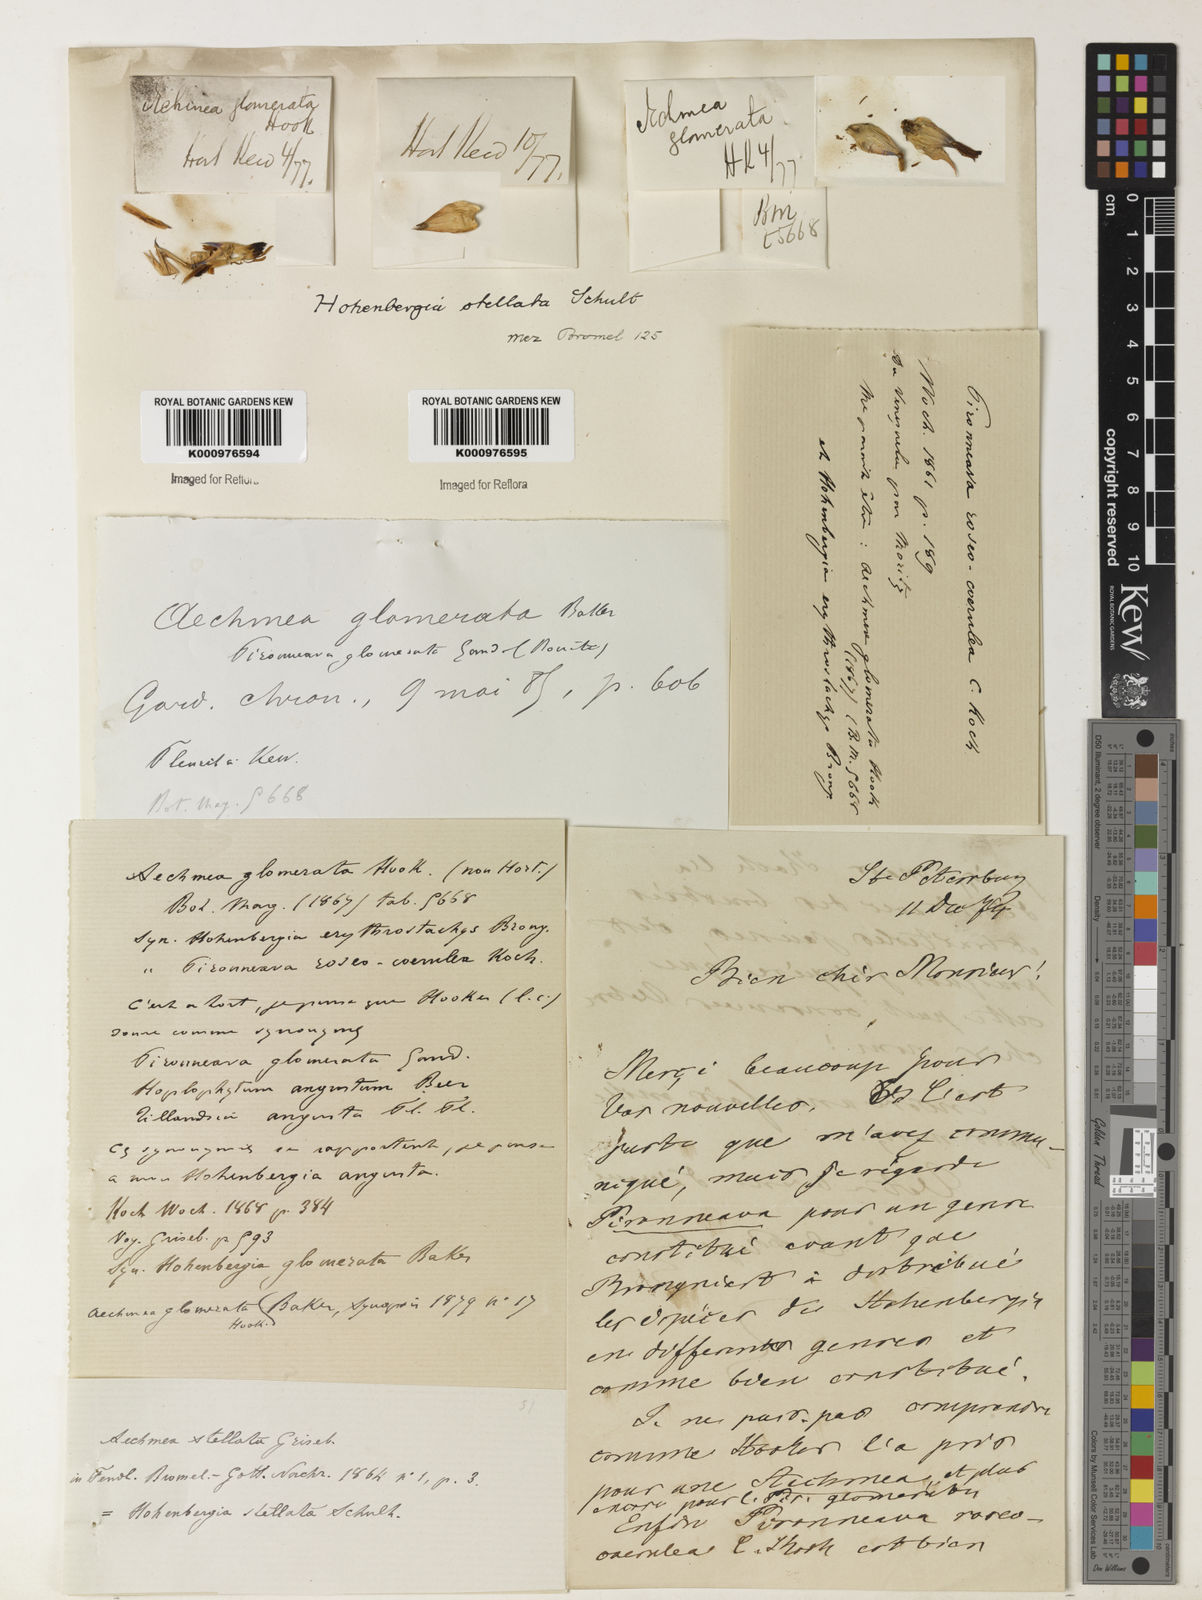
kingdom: Plantae
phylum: Tracheophyta
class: Liliopsida
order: Poales
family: Bromeliaceae
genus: Hohenbergia
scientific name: Hohenbergia stellata
